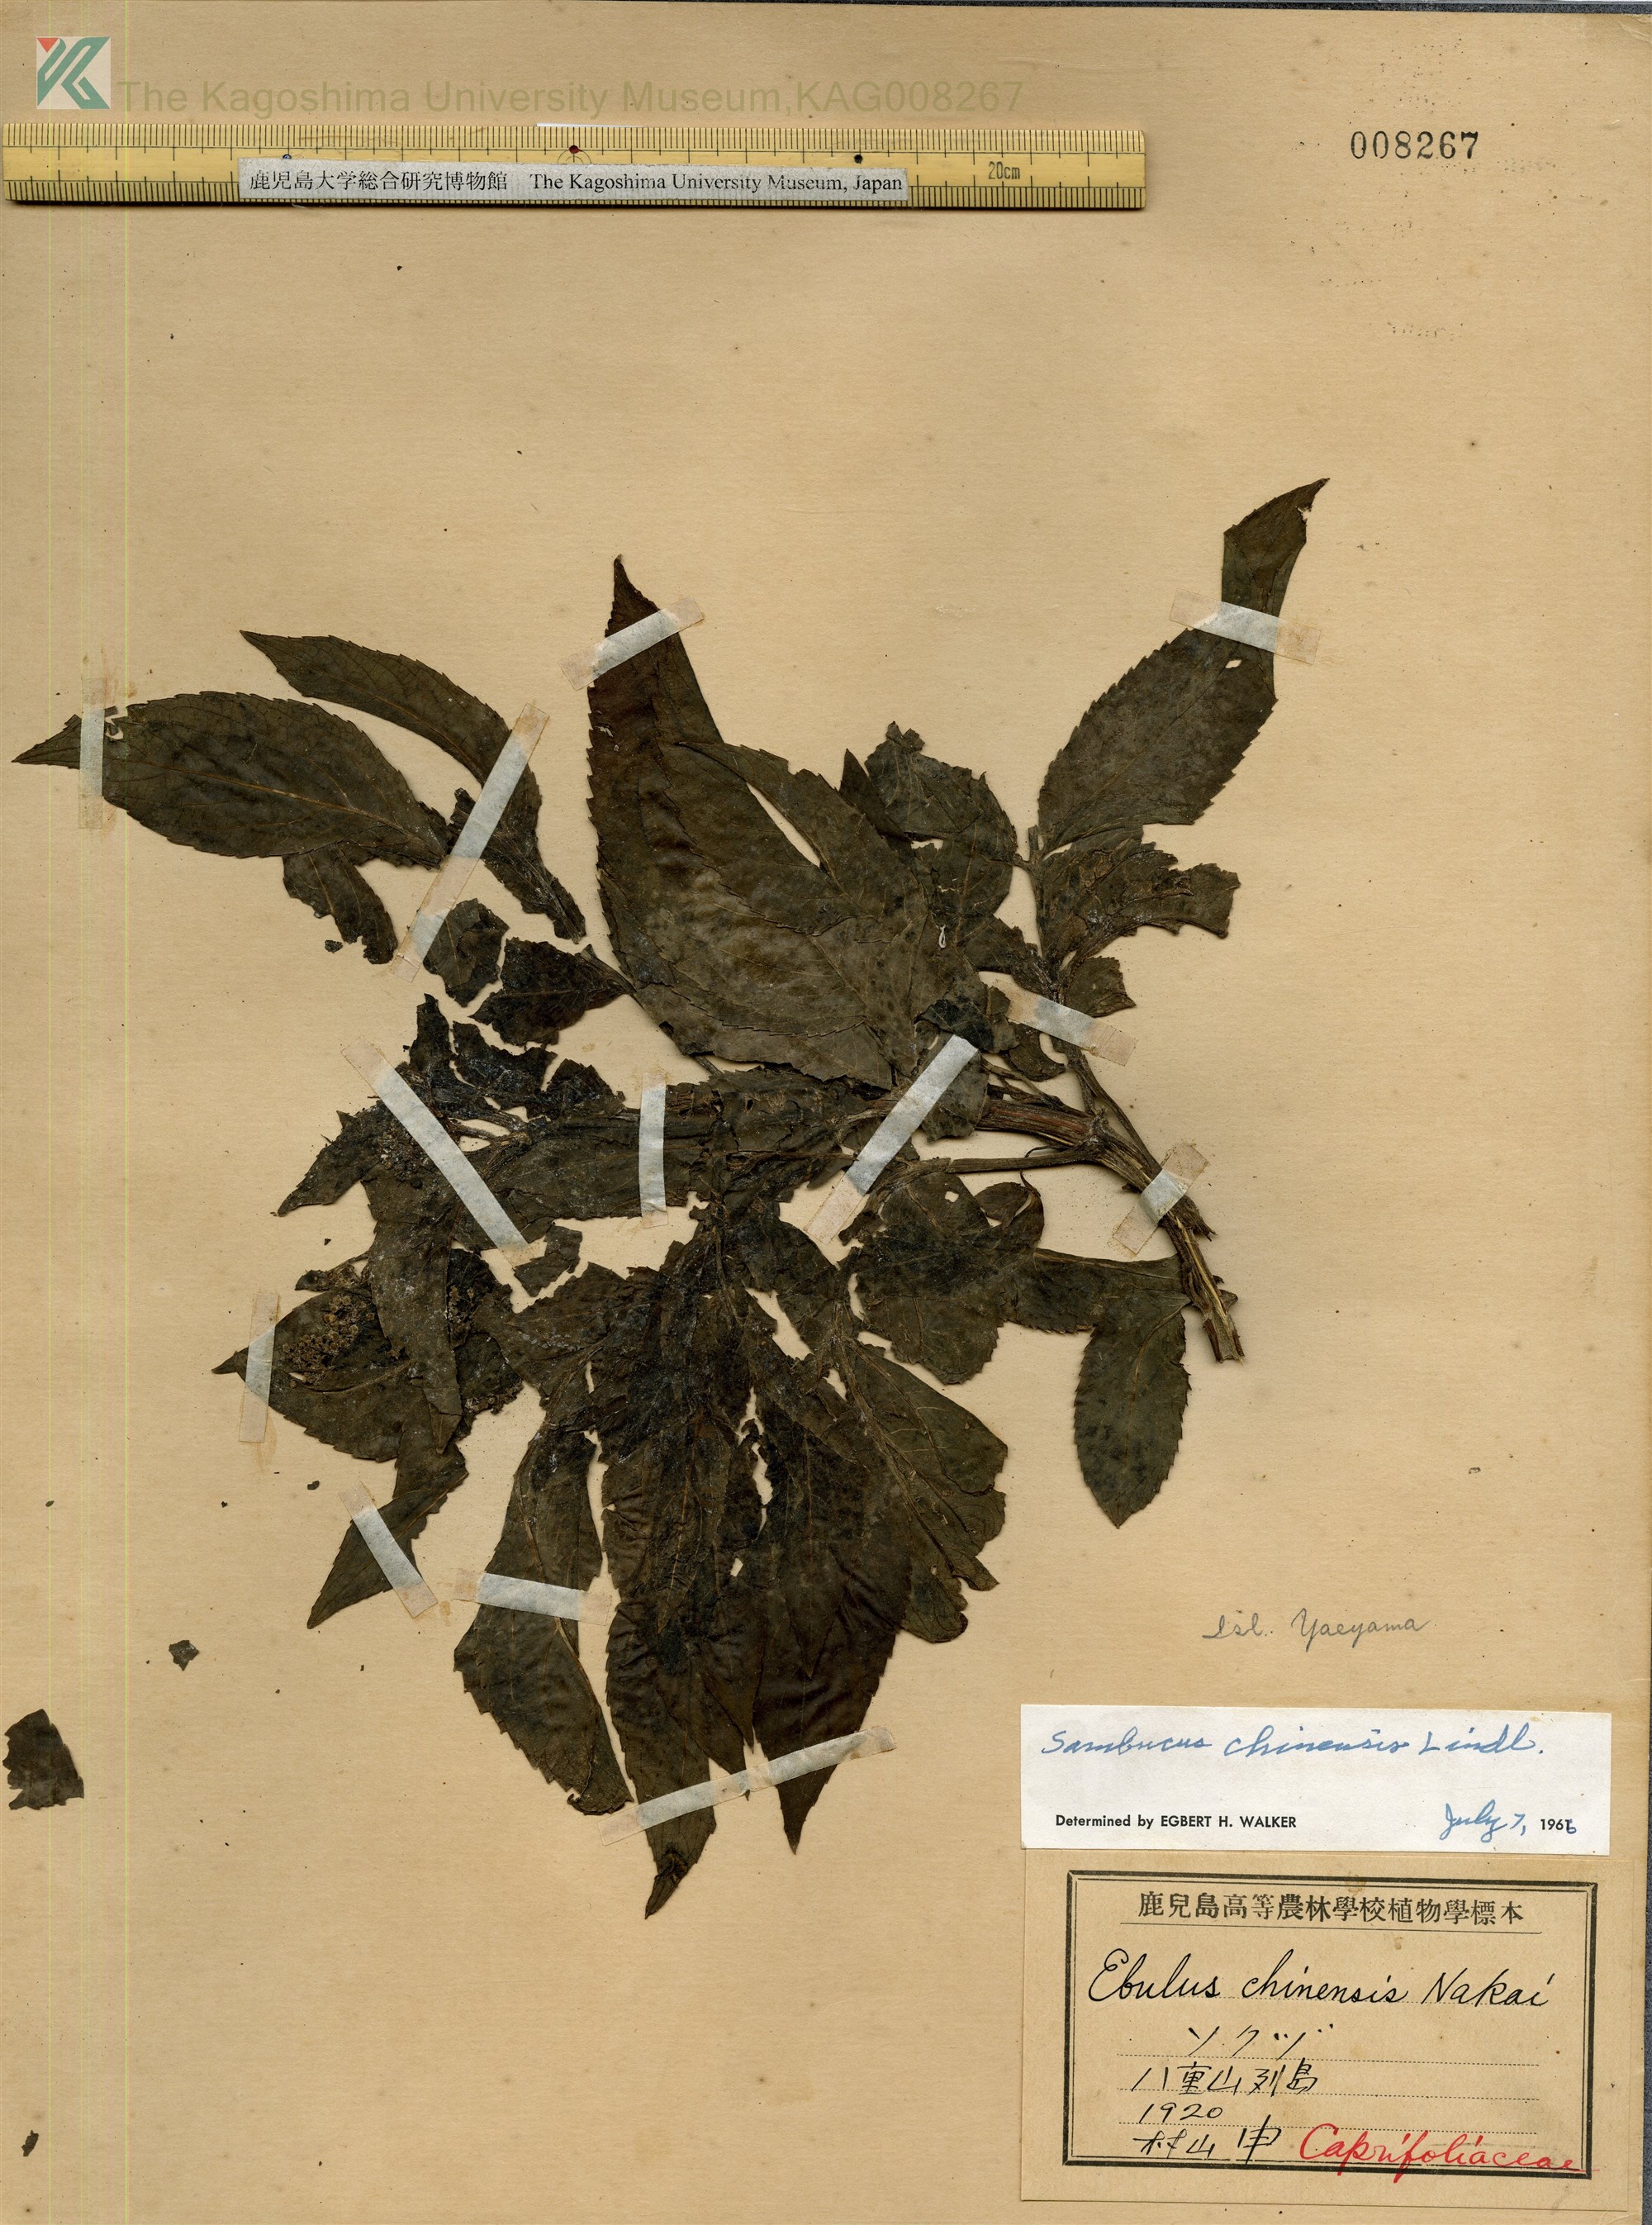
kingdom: Plantae
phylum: Tracheophyta
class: Magnoliopsida
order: Dipsacales
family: Viburnaceae
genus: Sambucus
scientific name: Sambucus javanica
